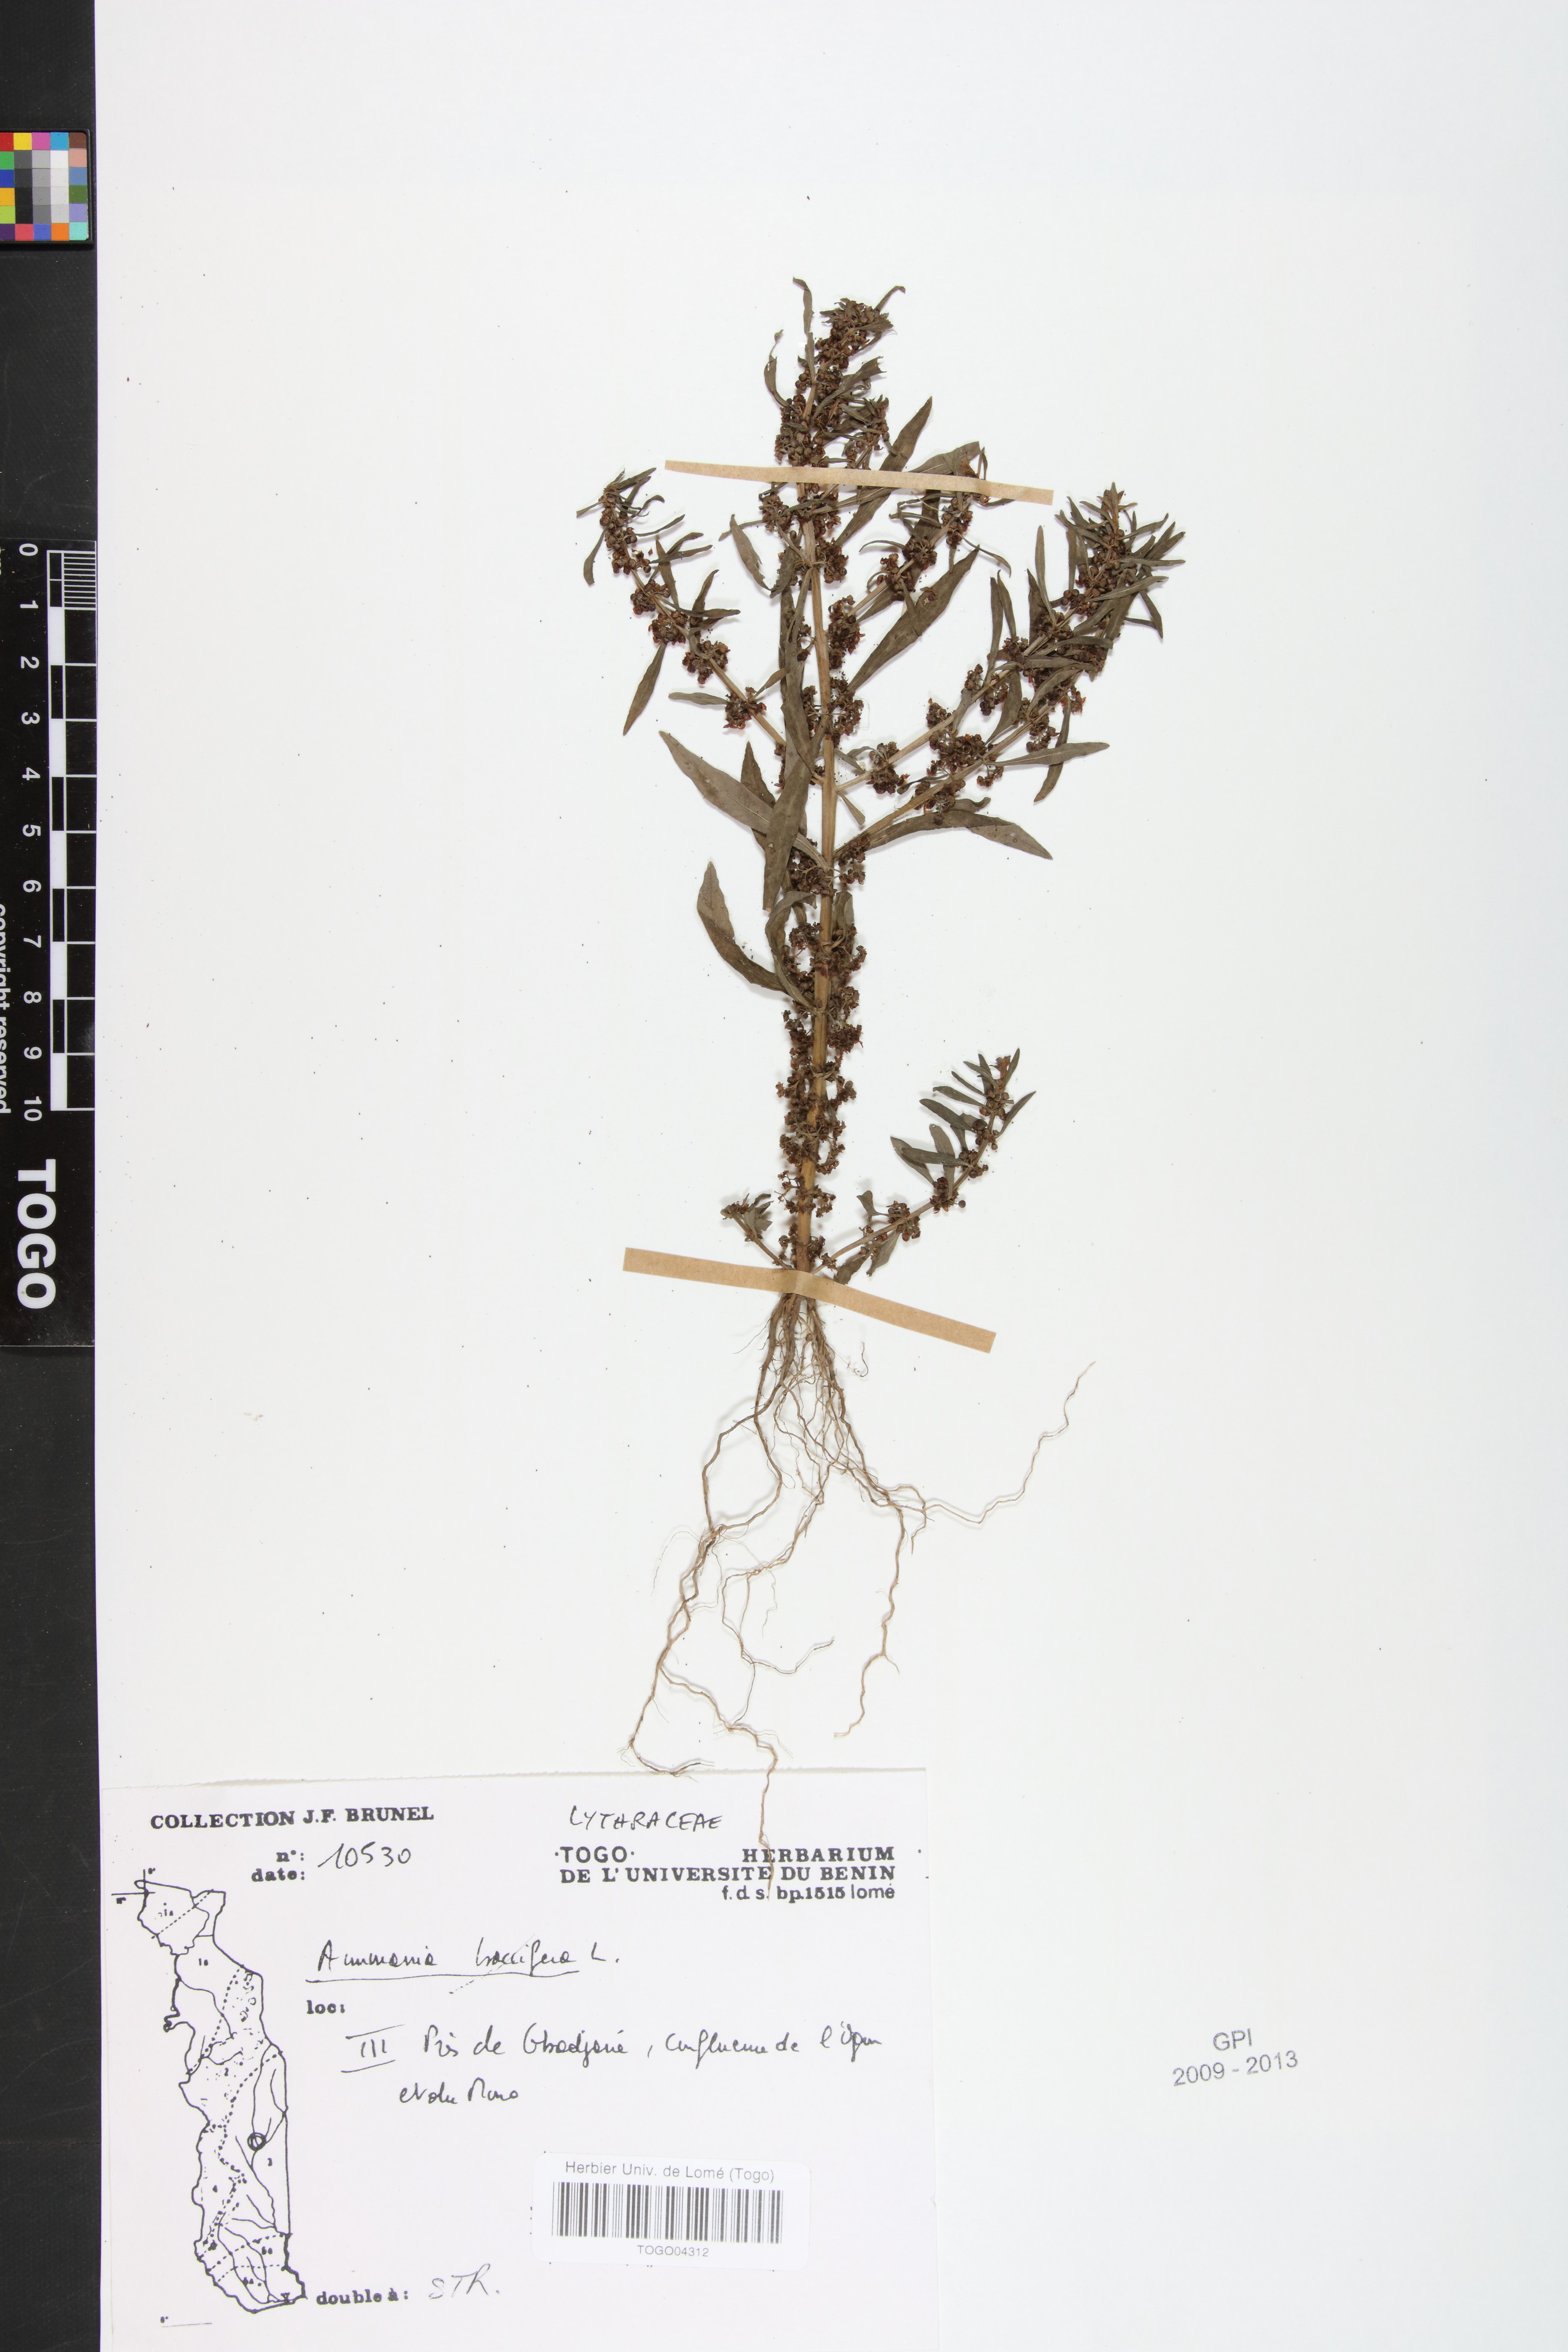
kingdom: Plantae
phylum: Tracheophyta
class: Magnoliopsida
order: Myrtales
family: Lythraceae
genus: Ammannia
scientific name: Ammannia baccifera
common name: Blistering ammania
